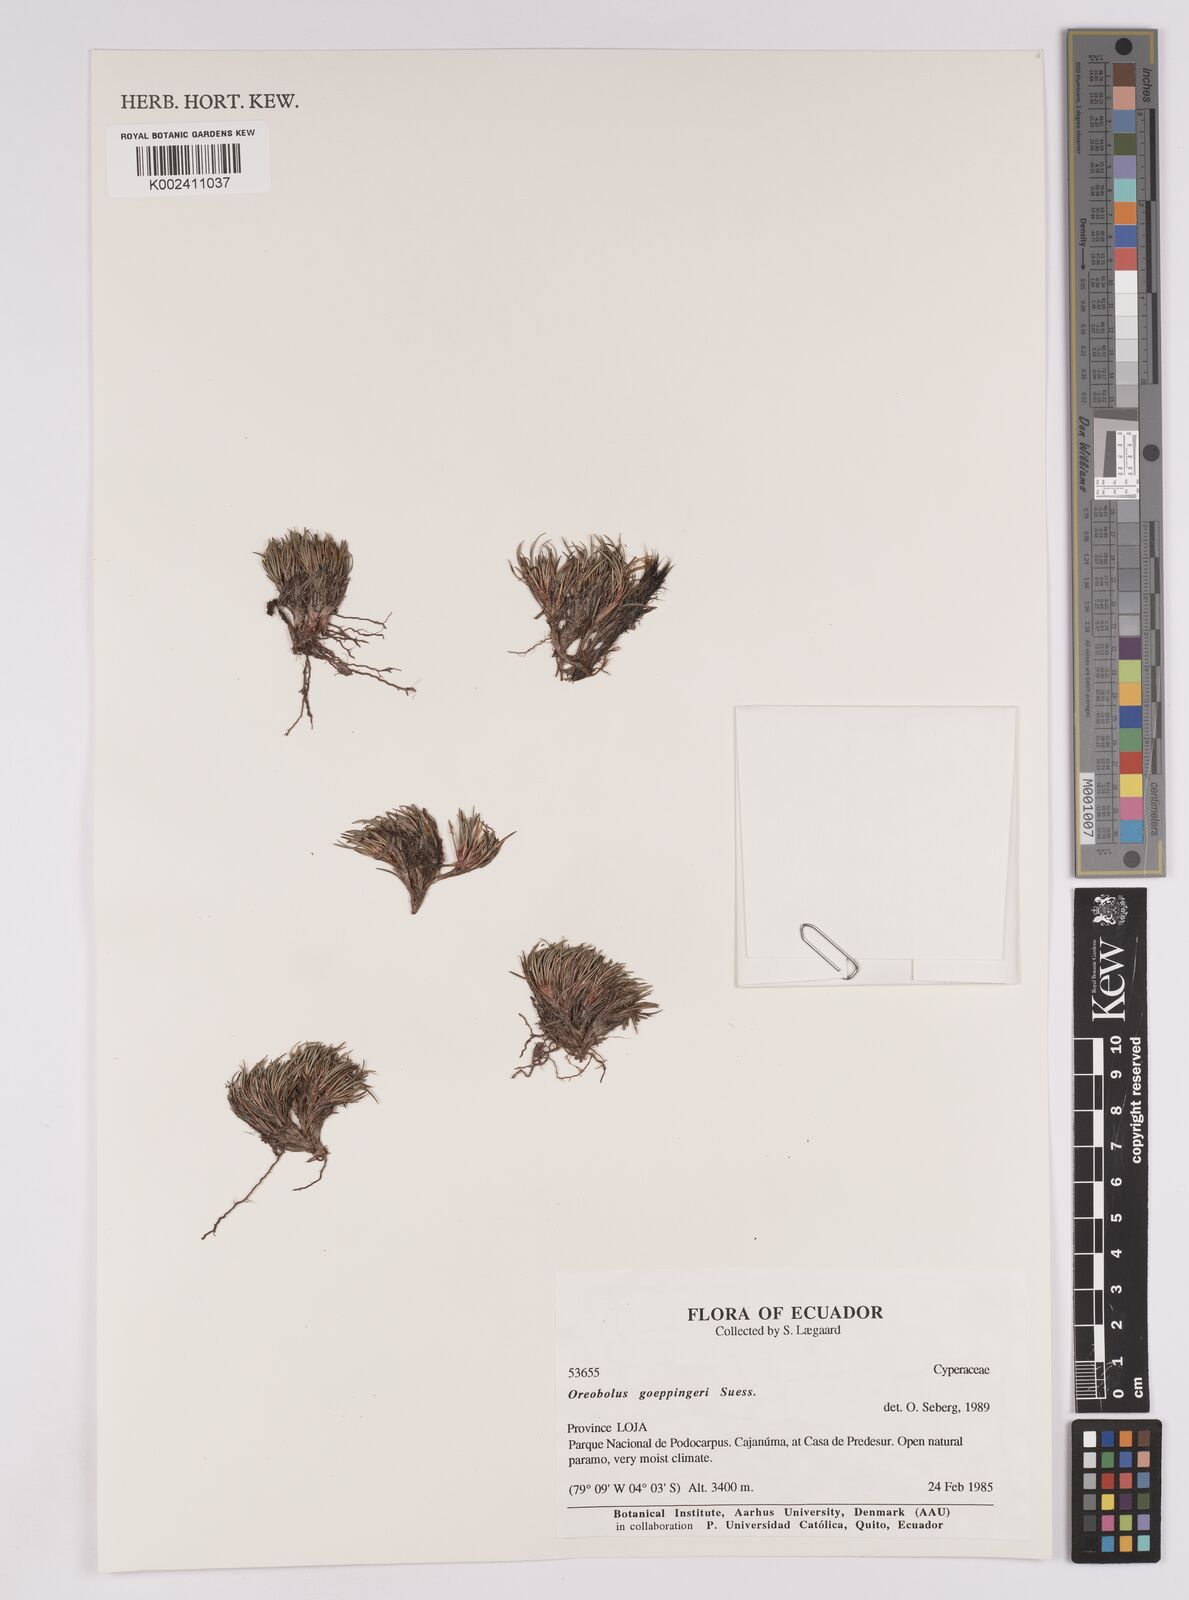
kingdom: Plantae
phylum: Tracheophyta
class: Liliopsida
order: Poales
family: Cyperaceae
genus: Oreobolus
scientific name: Oreobolus goeppingeri
